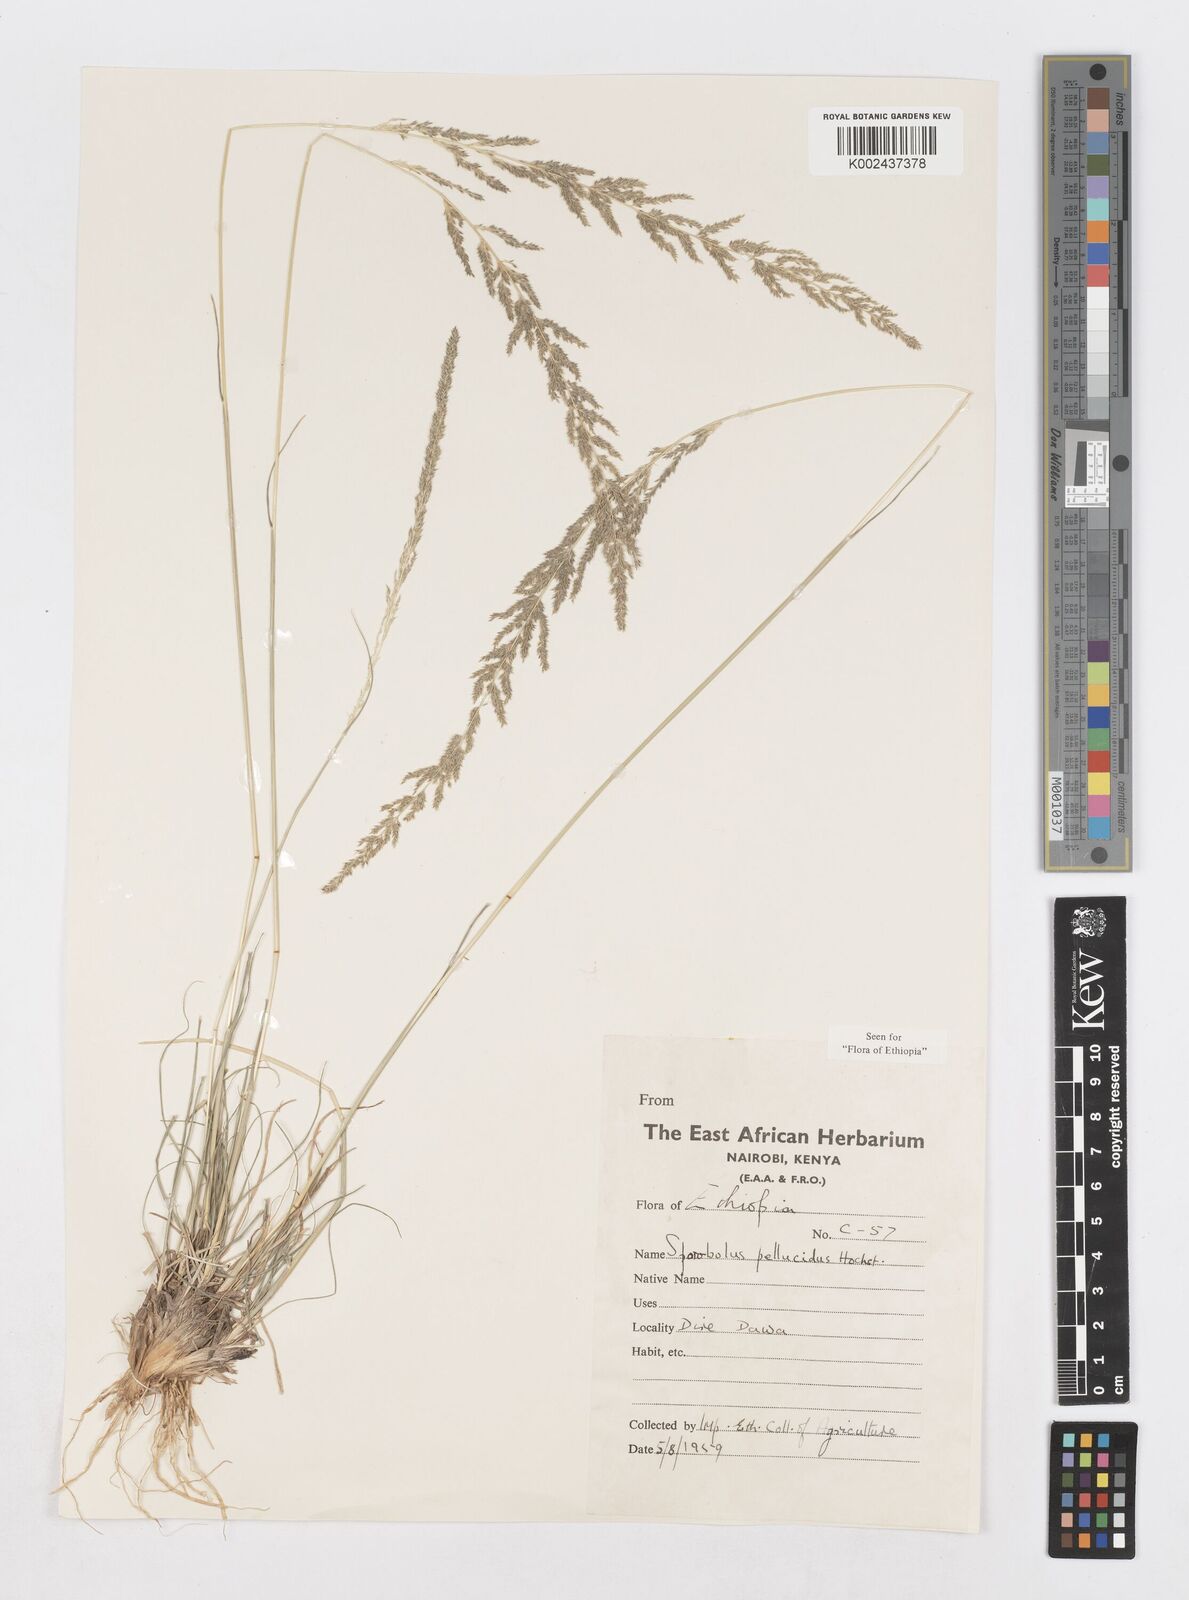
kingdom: Plantae
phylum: Tracheophyta
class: Liliopsida
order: Poales
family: Poaceae
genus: Sporobolus
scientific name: Sporobolus pellucidus
